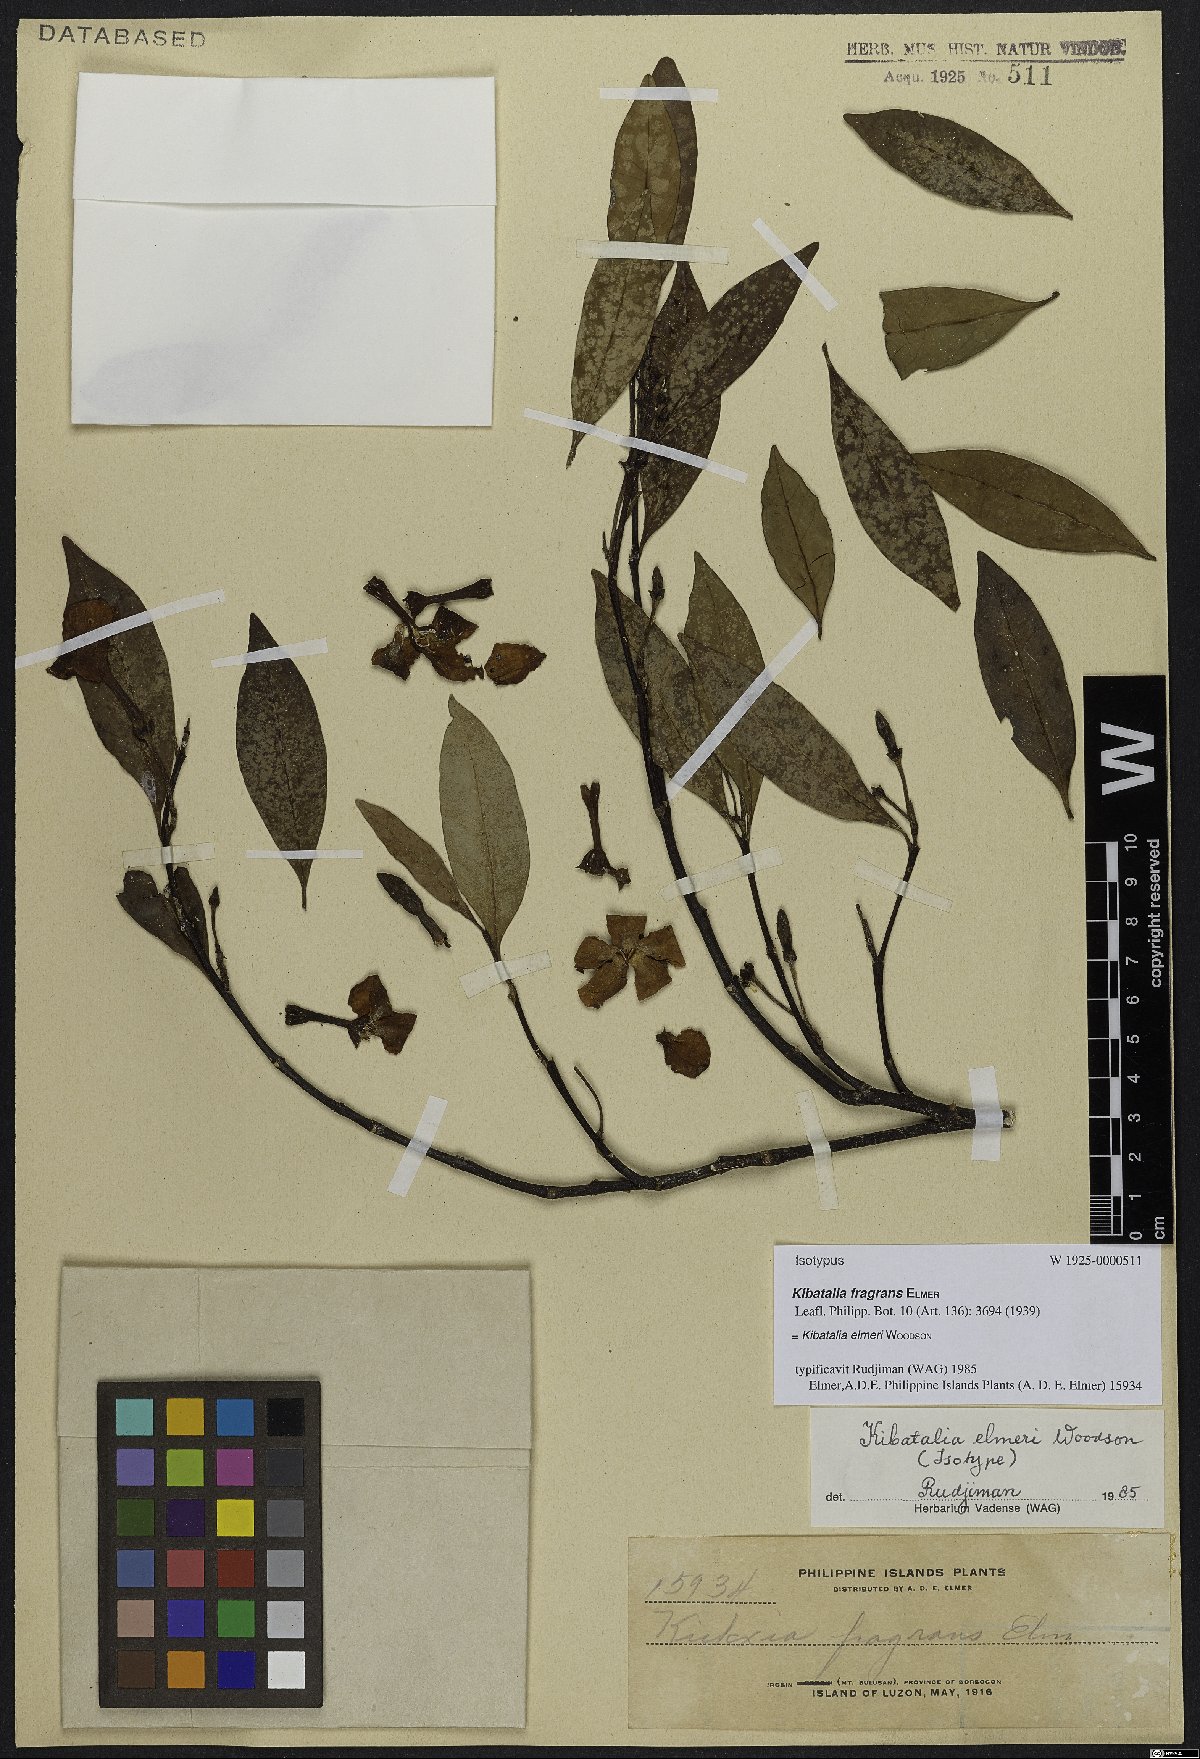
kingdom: Plantae
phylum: Tracheophyta
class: Magnoliopsida
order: Gentianales
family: Apocynaceae
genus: Kibatalia
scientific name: Kibatalia elmeri
